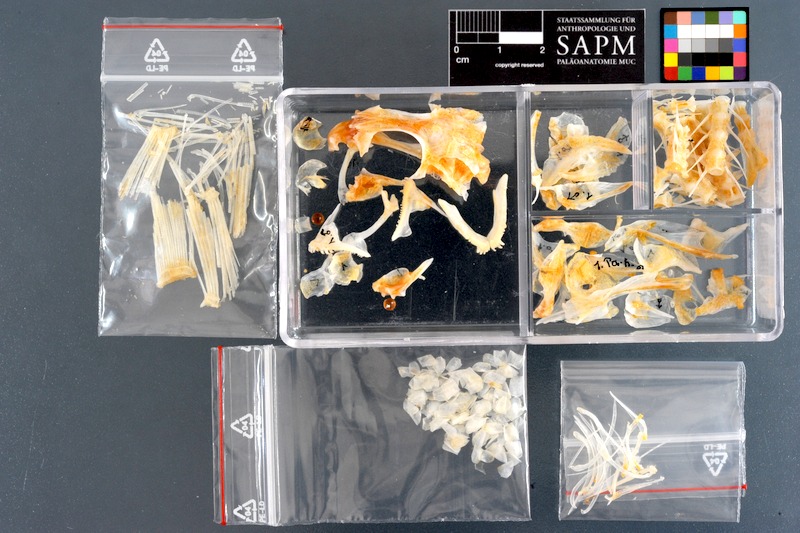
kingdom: Animalia
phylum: Chordata
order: Perciformes
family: Pinguipedidae
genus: Parapercis
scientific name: Parapercis hexophtalma
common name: Speckled sandperch
